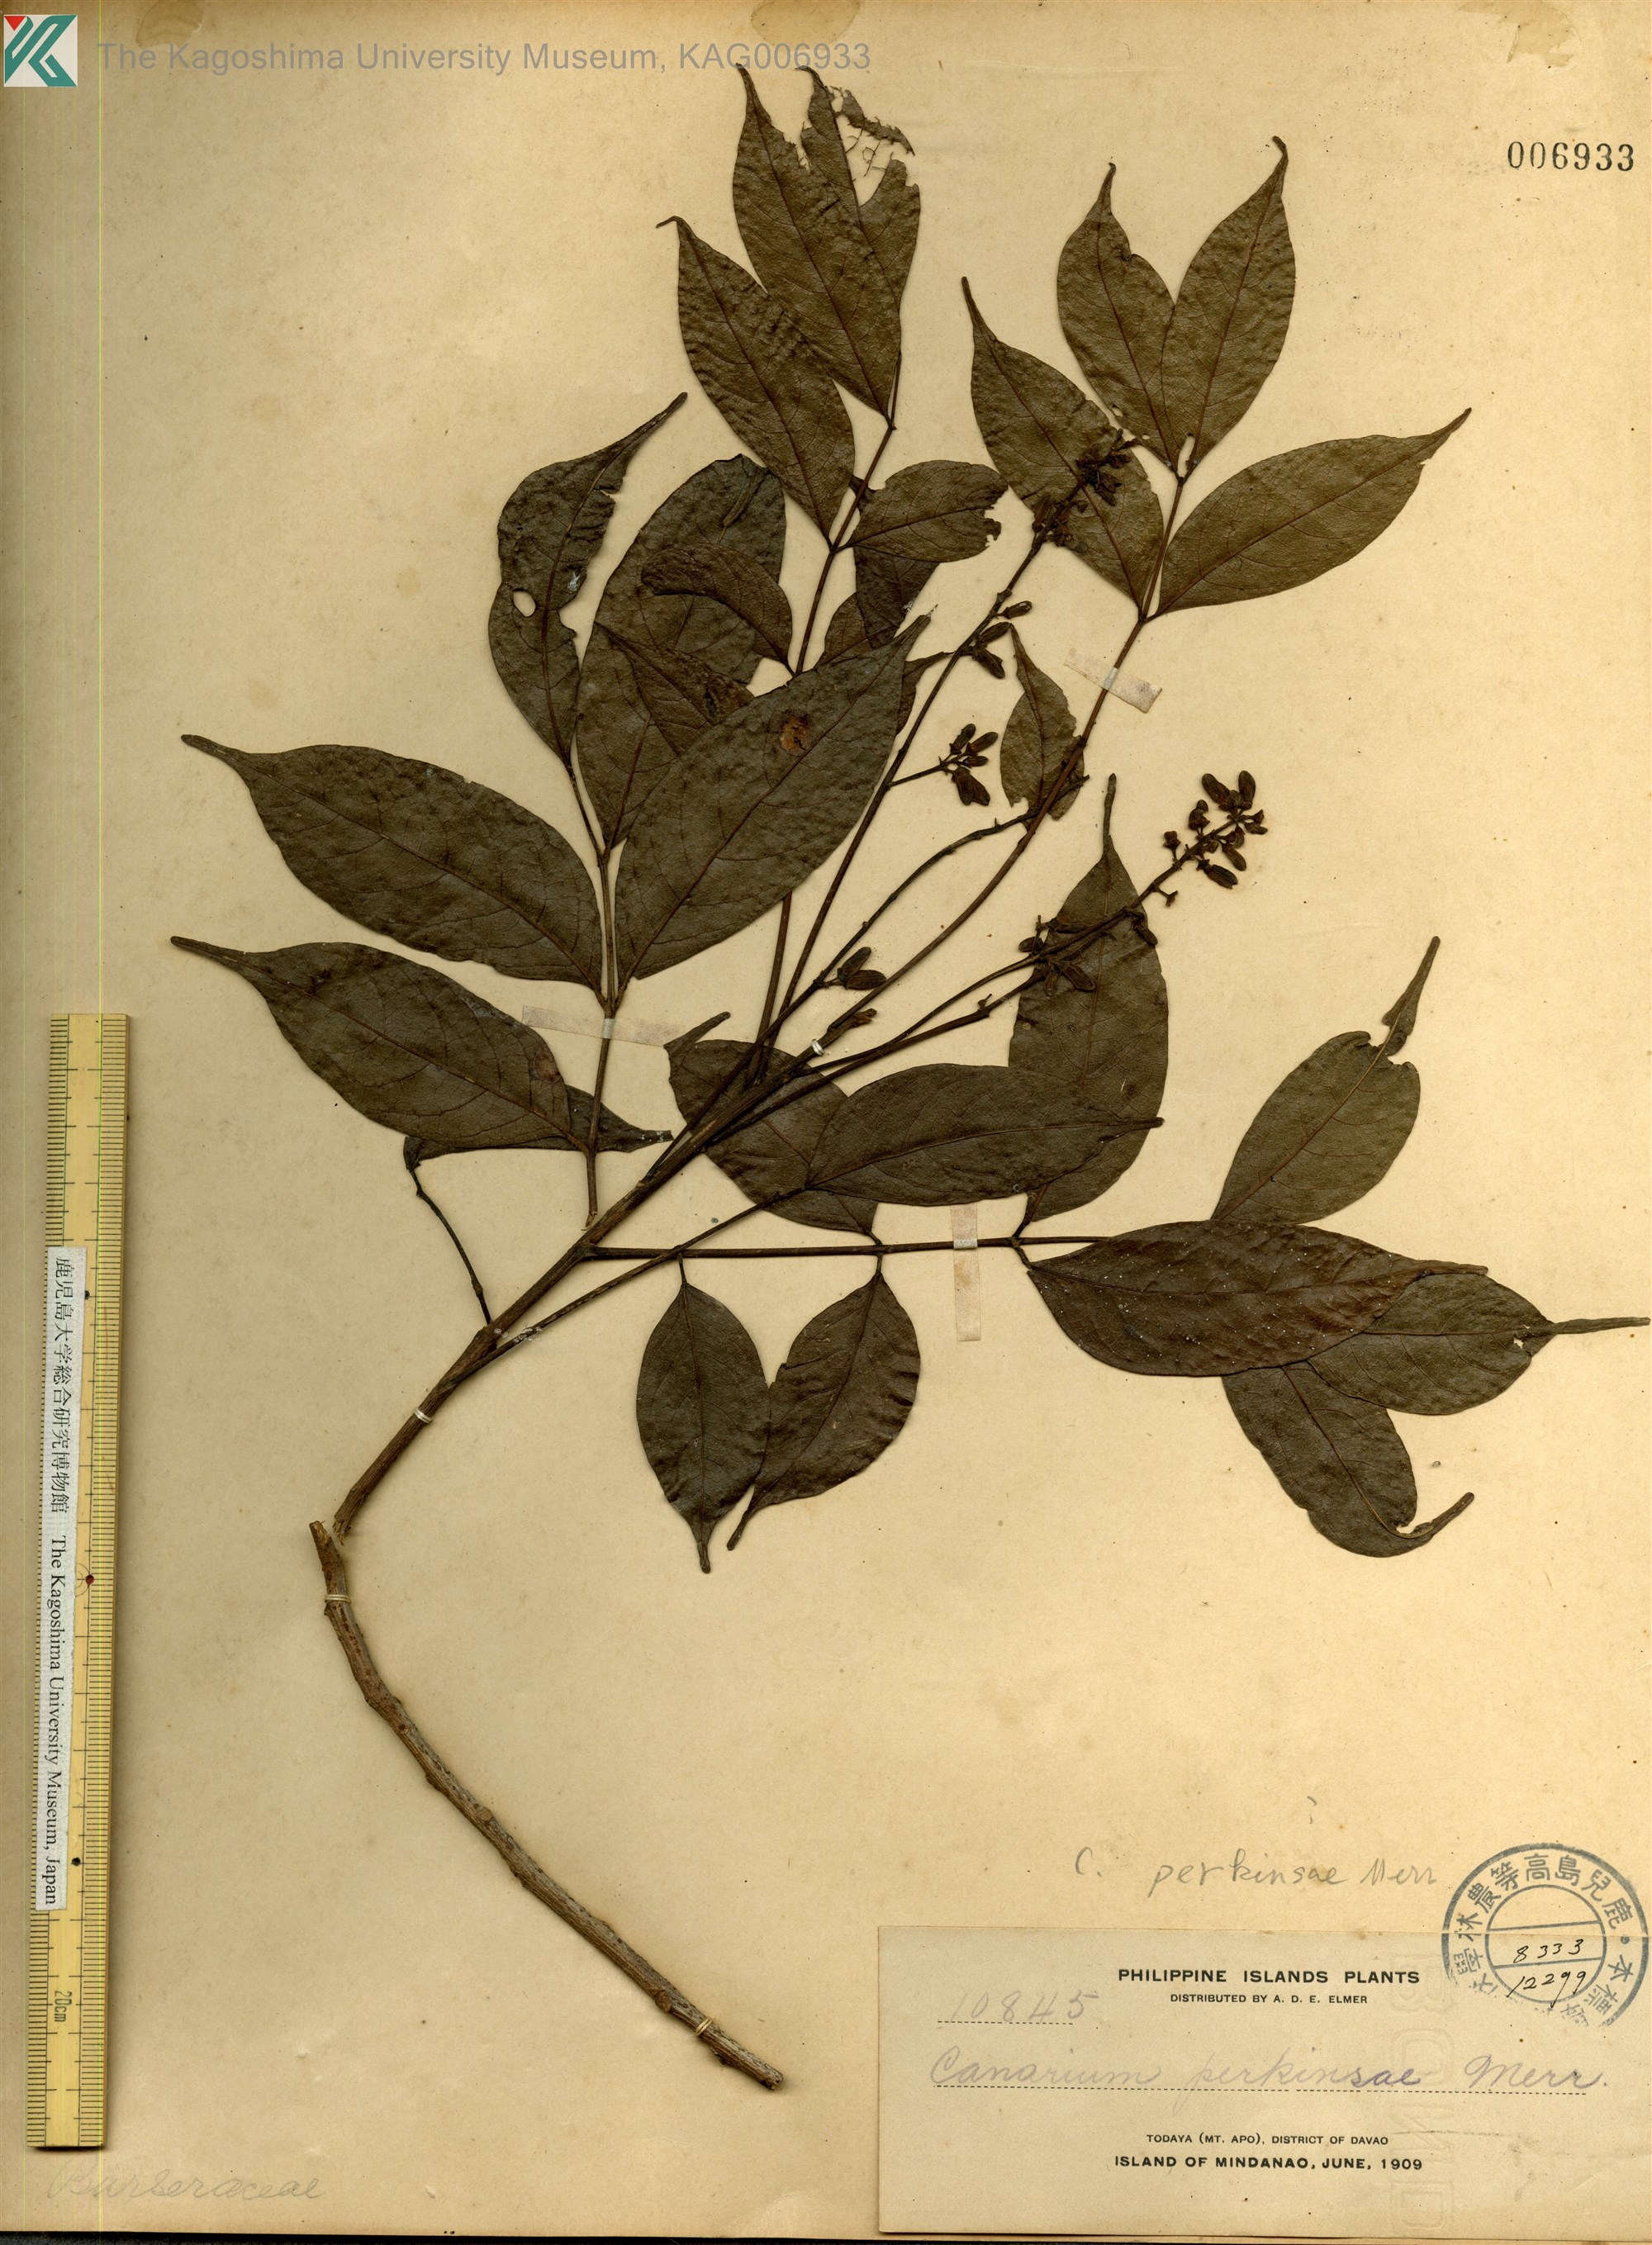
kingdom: Plantae
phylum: Tracheophyta
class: Magnoliopsida
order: Sapindales
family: Burseraceae
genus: Canarium
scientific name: Canarium
